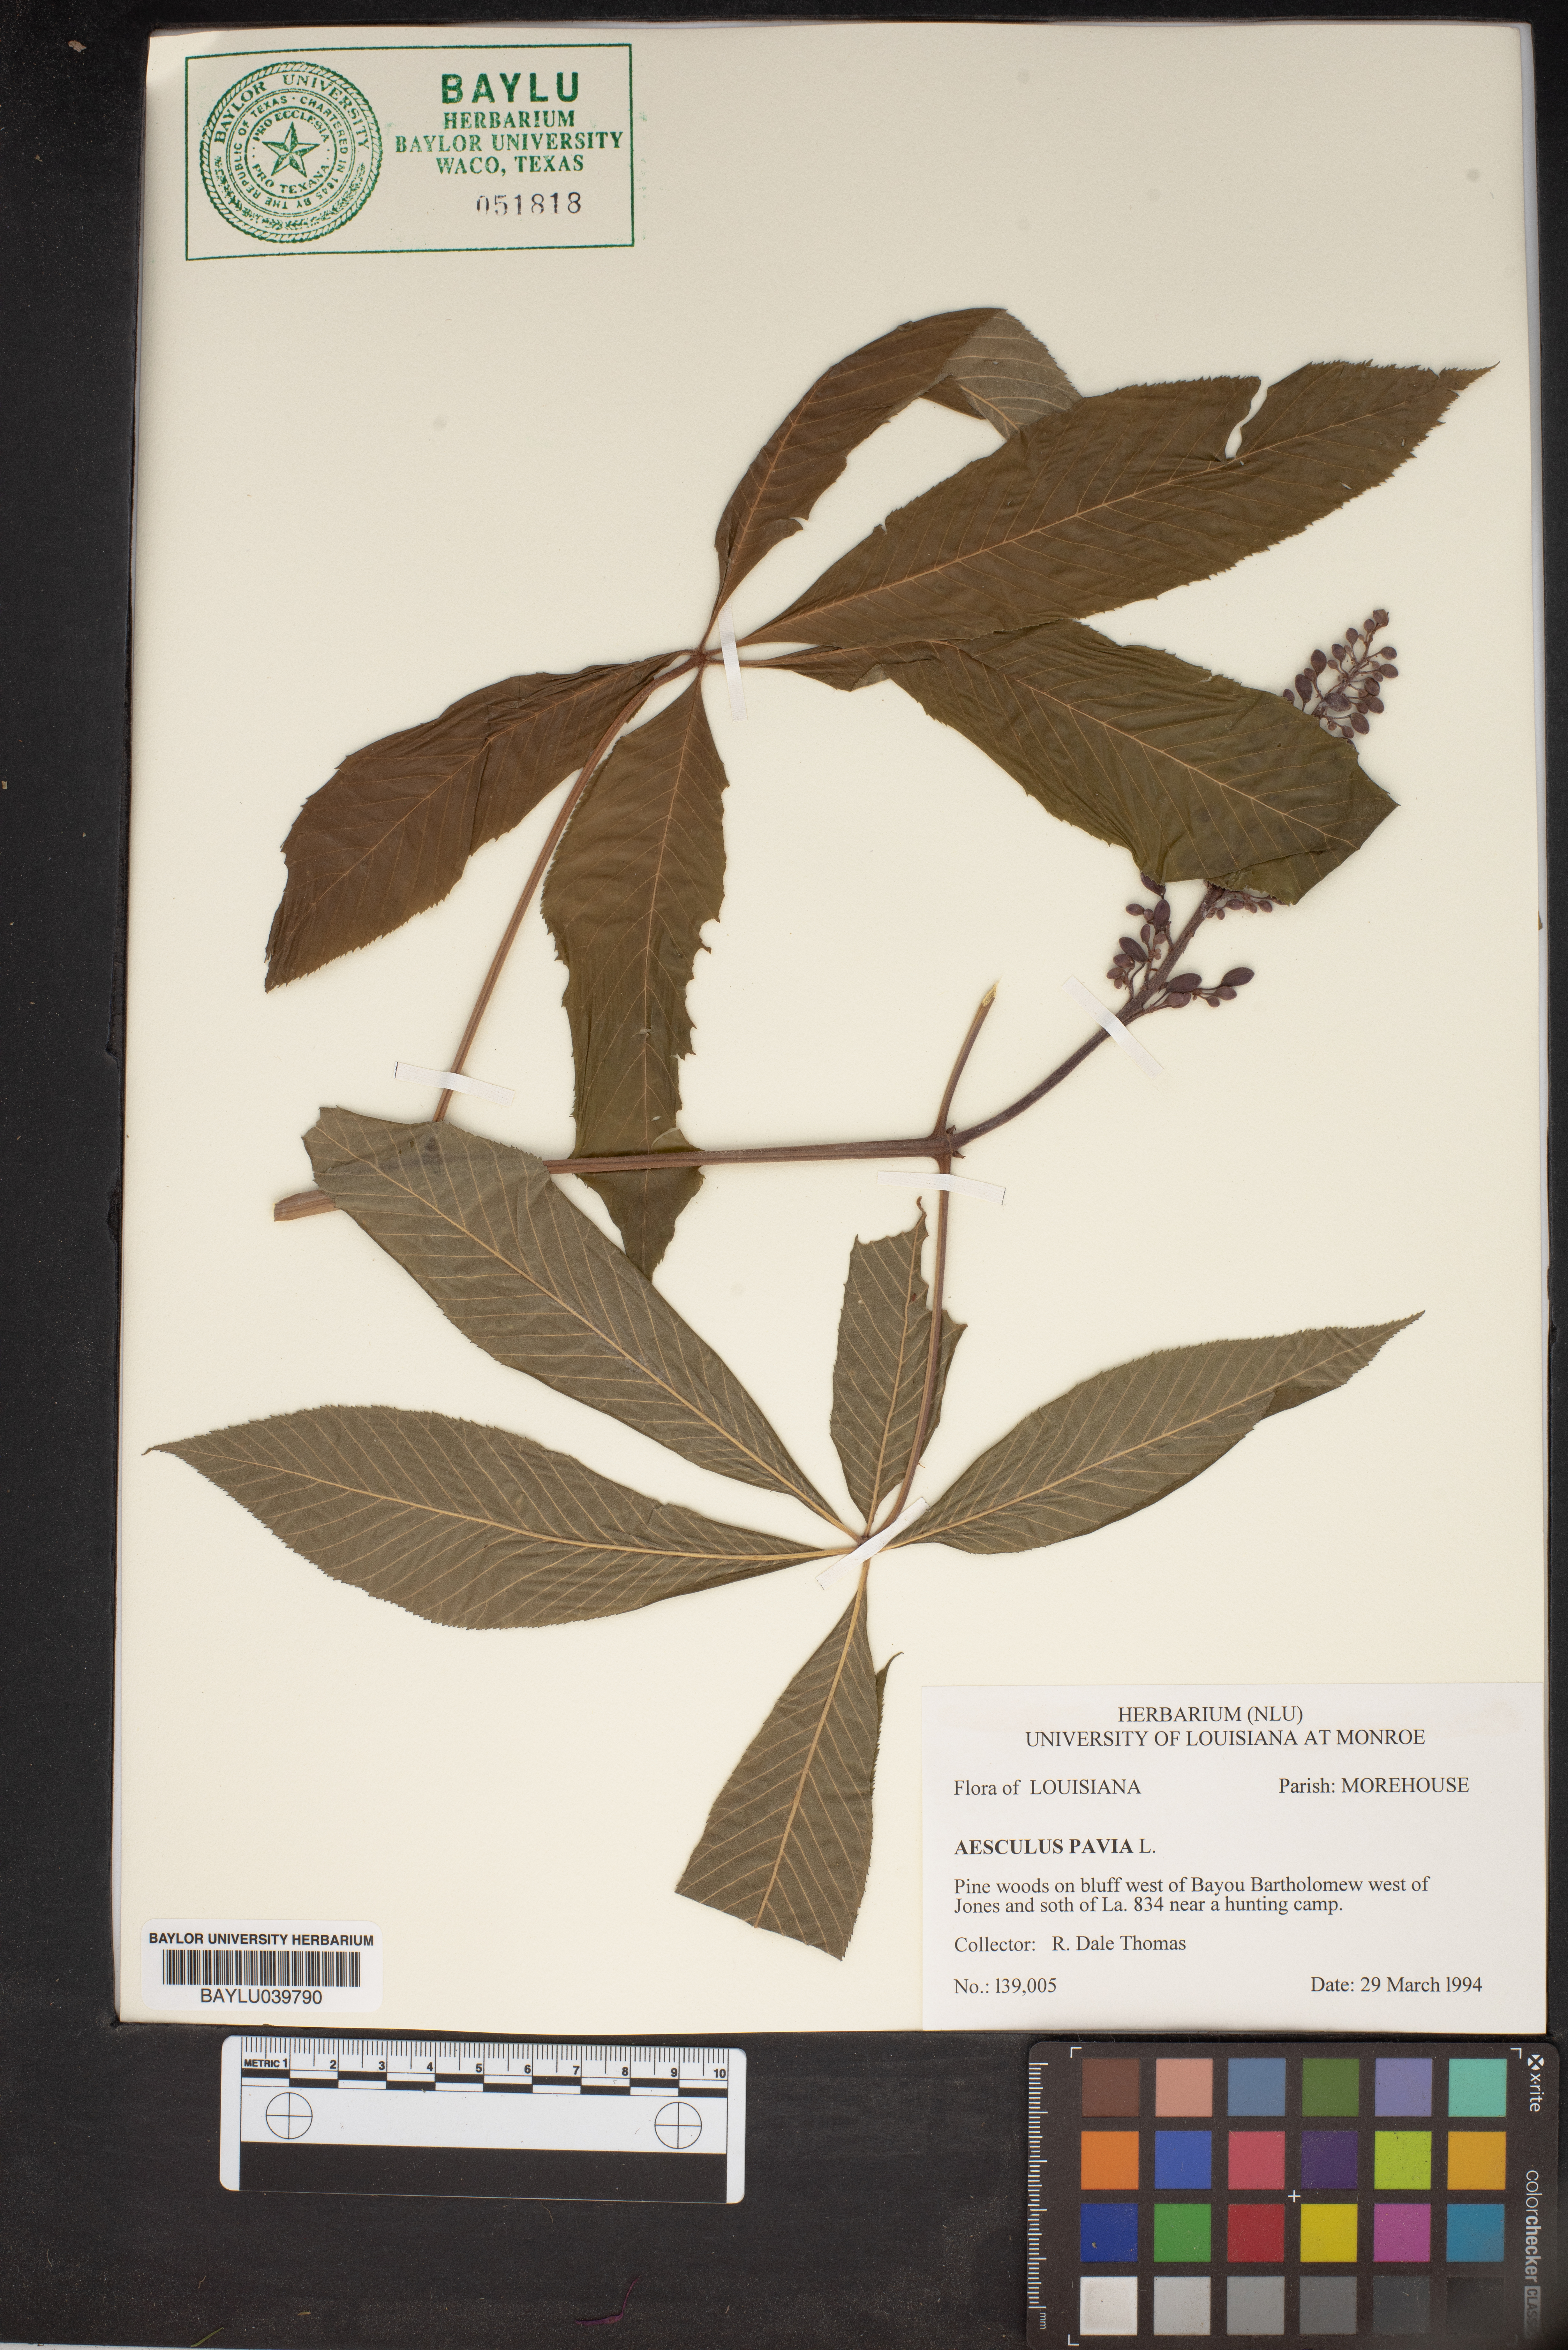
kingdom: Plantae
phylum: Tracheophyta
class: Magnoliopsida
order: Sapindales
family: Sapindaceae
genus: Aesculus
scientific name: Aesculus pavia
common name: Red buckeye
